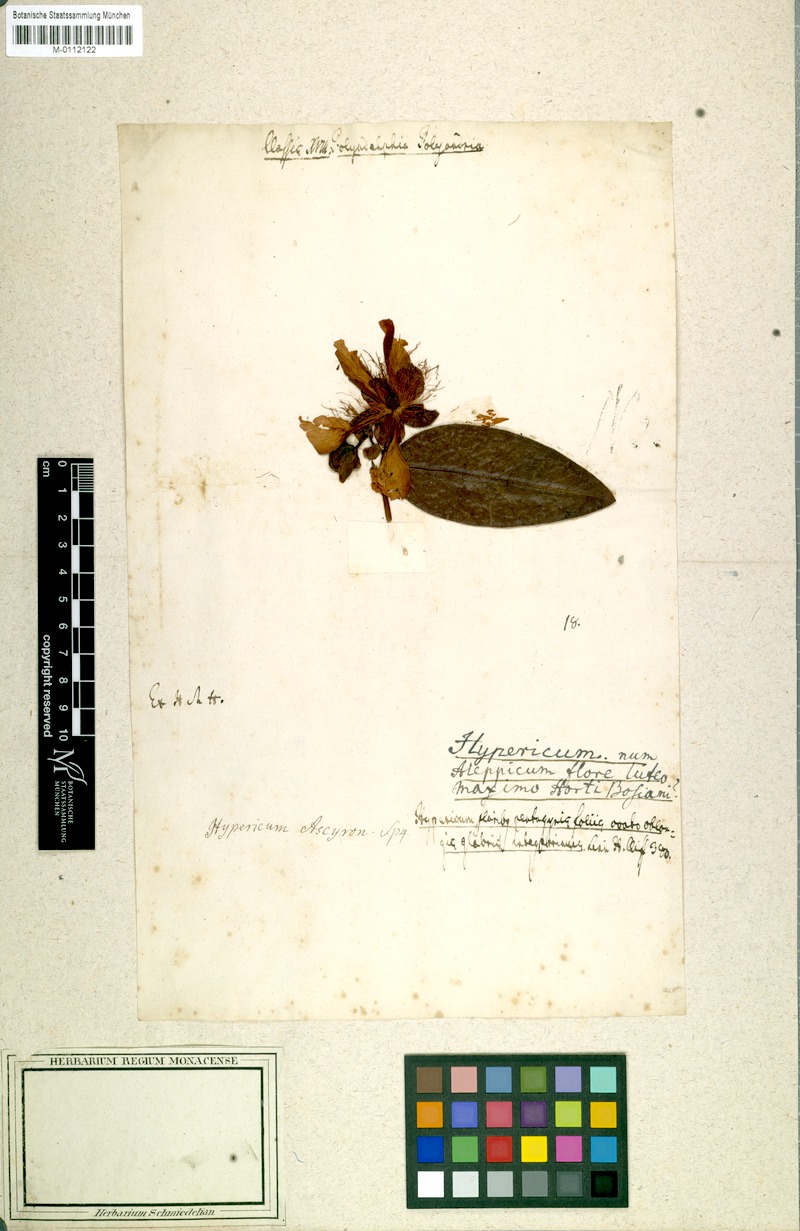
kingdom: Plantae
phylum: Tracheophyta
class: Magnoliopsida
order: Malpighiales
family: Hypericaceae
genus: Hypericum
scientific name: Hypericum calycinum
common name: Rose-of-sharon
